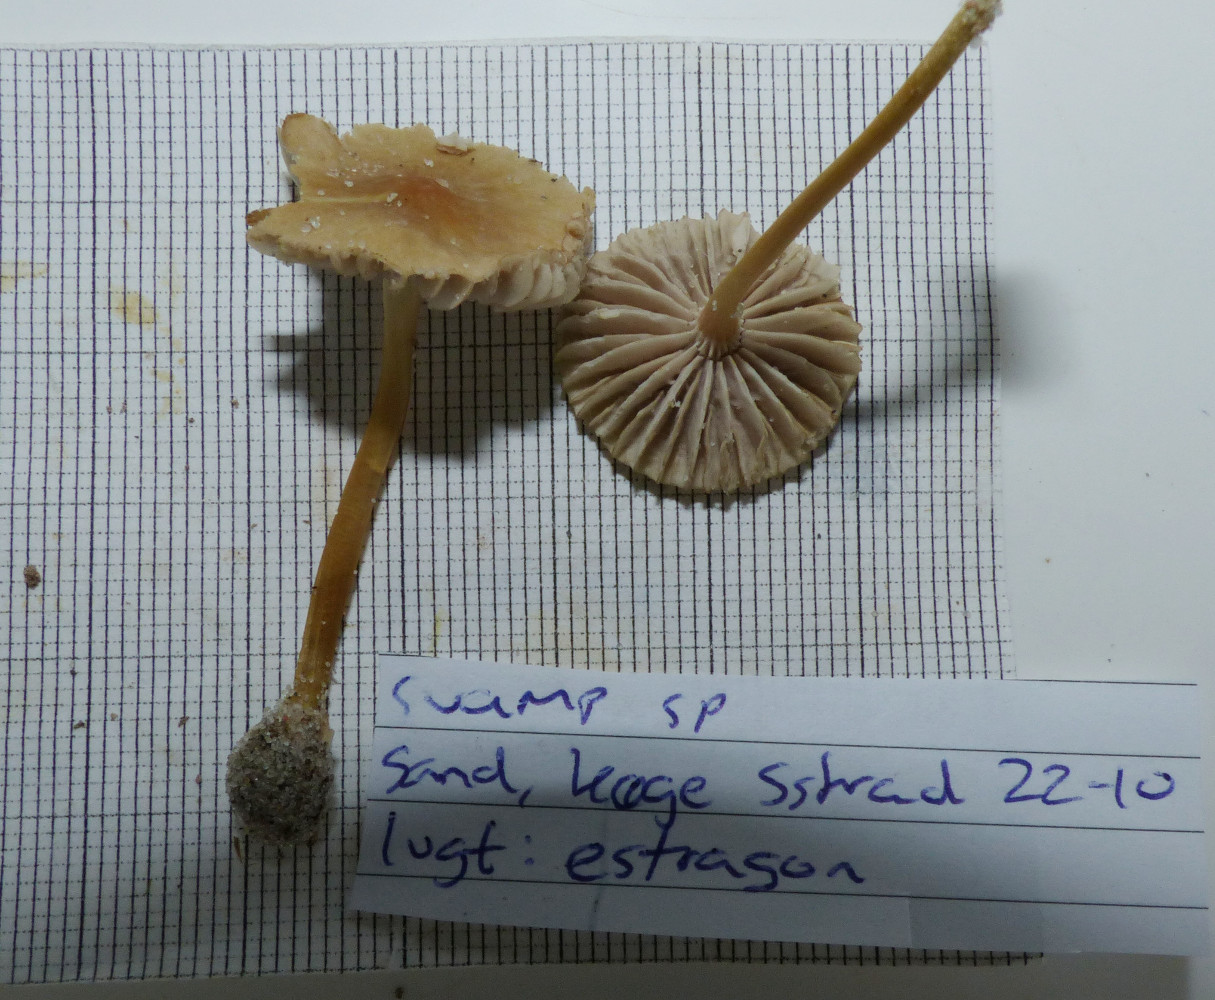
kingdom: Fungi
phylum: Basidiomycota
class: Agaricomycetes
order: Agaricales
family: Mycenaceae
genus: Mycena
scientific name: Mycena chlorantha
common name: klit-huesvamp
